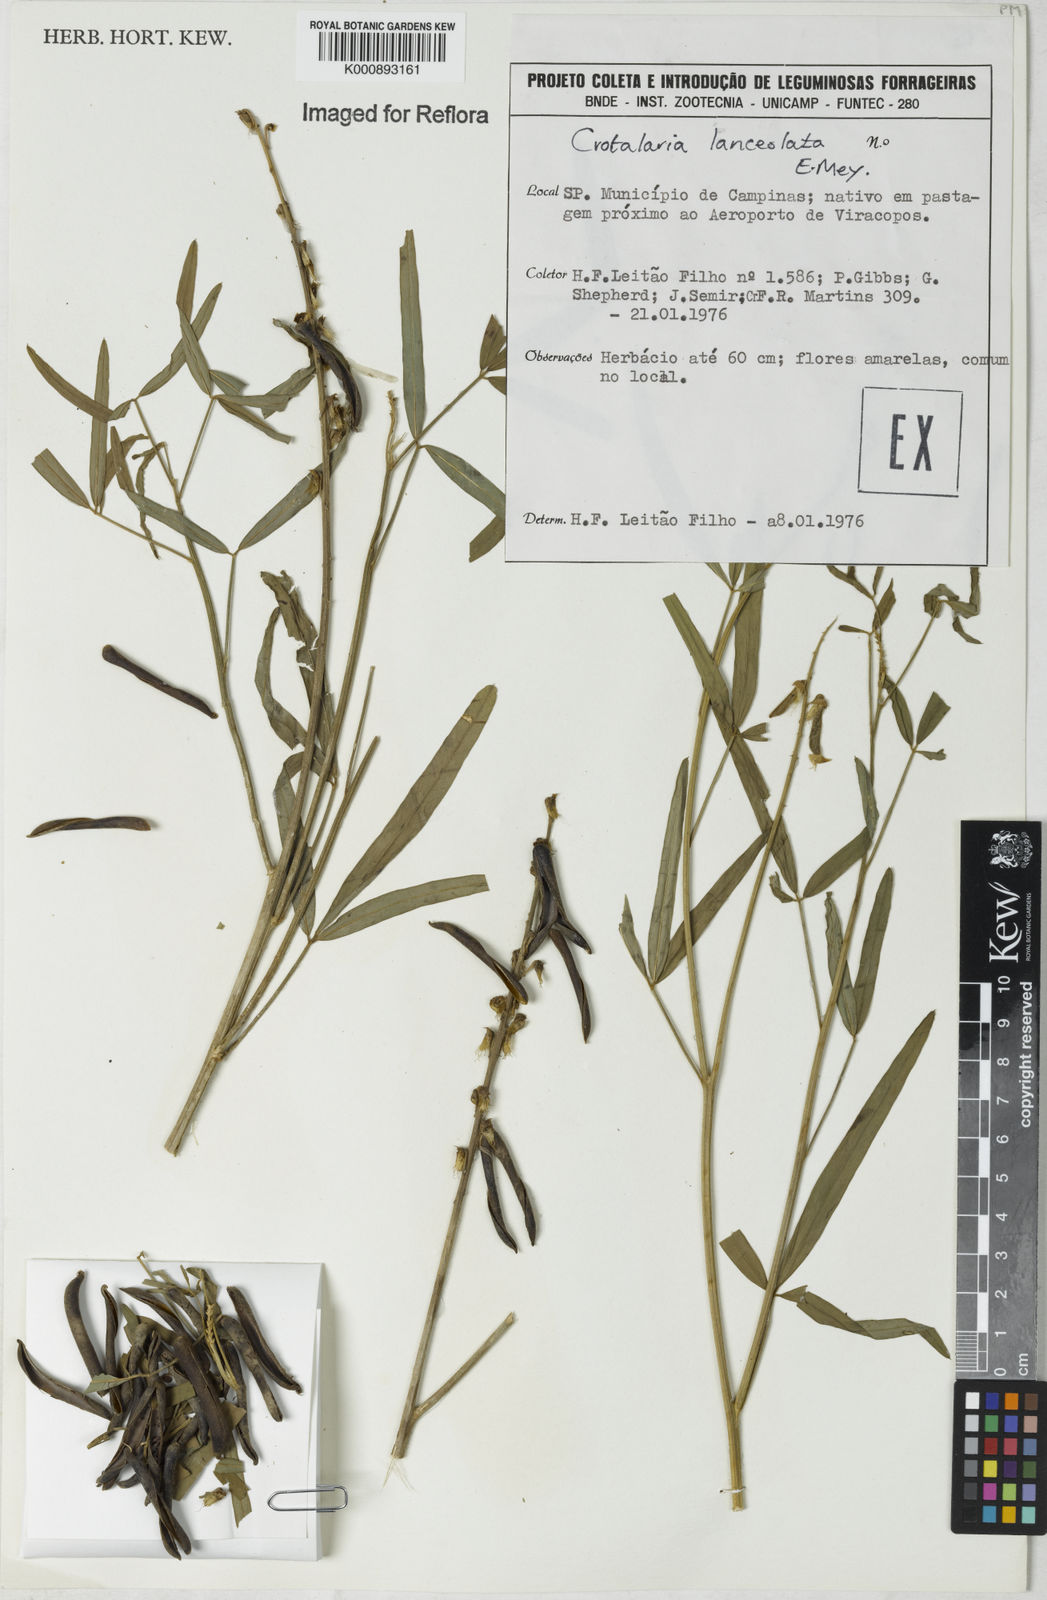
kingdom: Plantae
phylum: Tracheophyta
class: Magnoliopsida
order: Fabales
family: Fabaceae
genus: Crotalaria
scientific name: Crotalaria lanceolata
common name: Lanceleaf rattlebox
